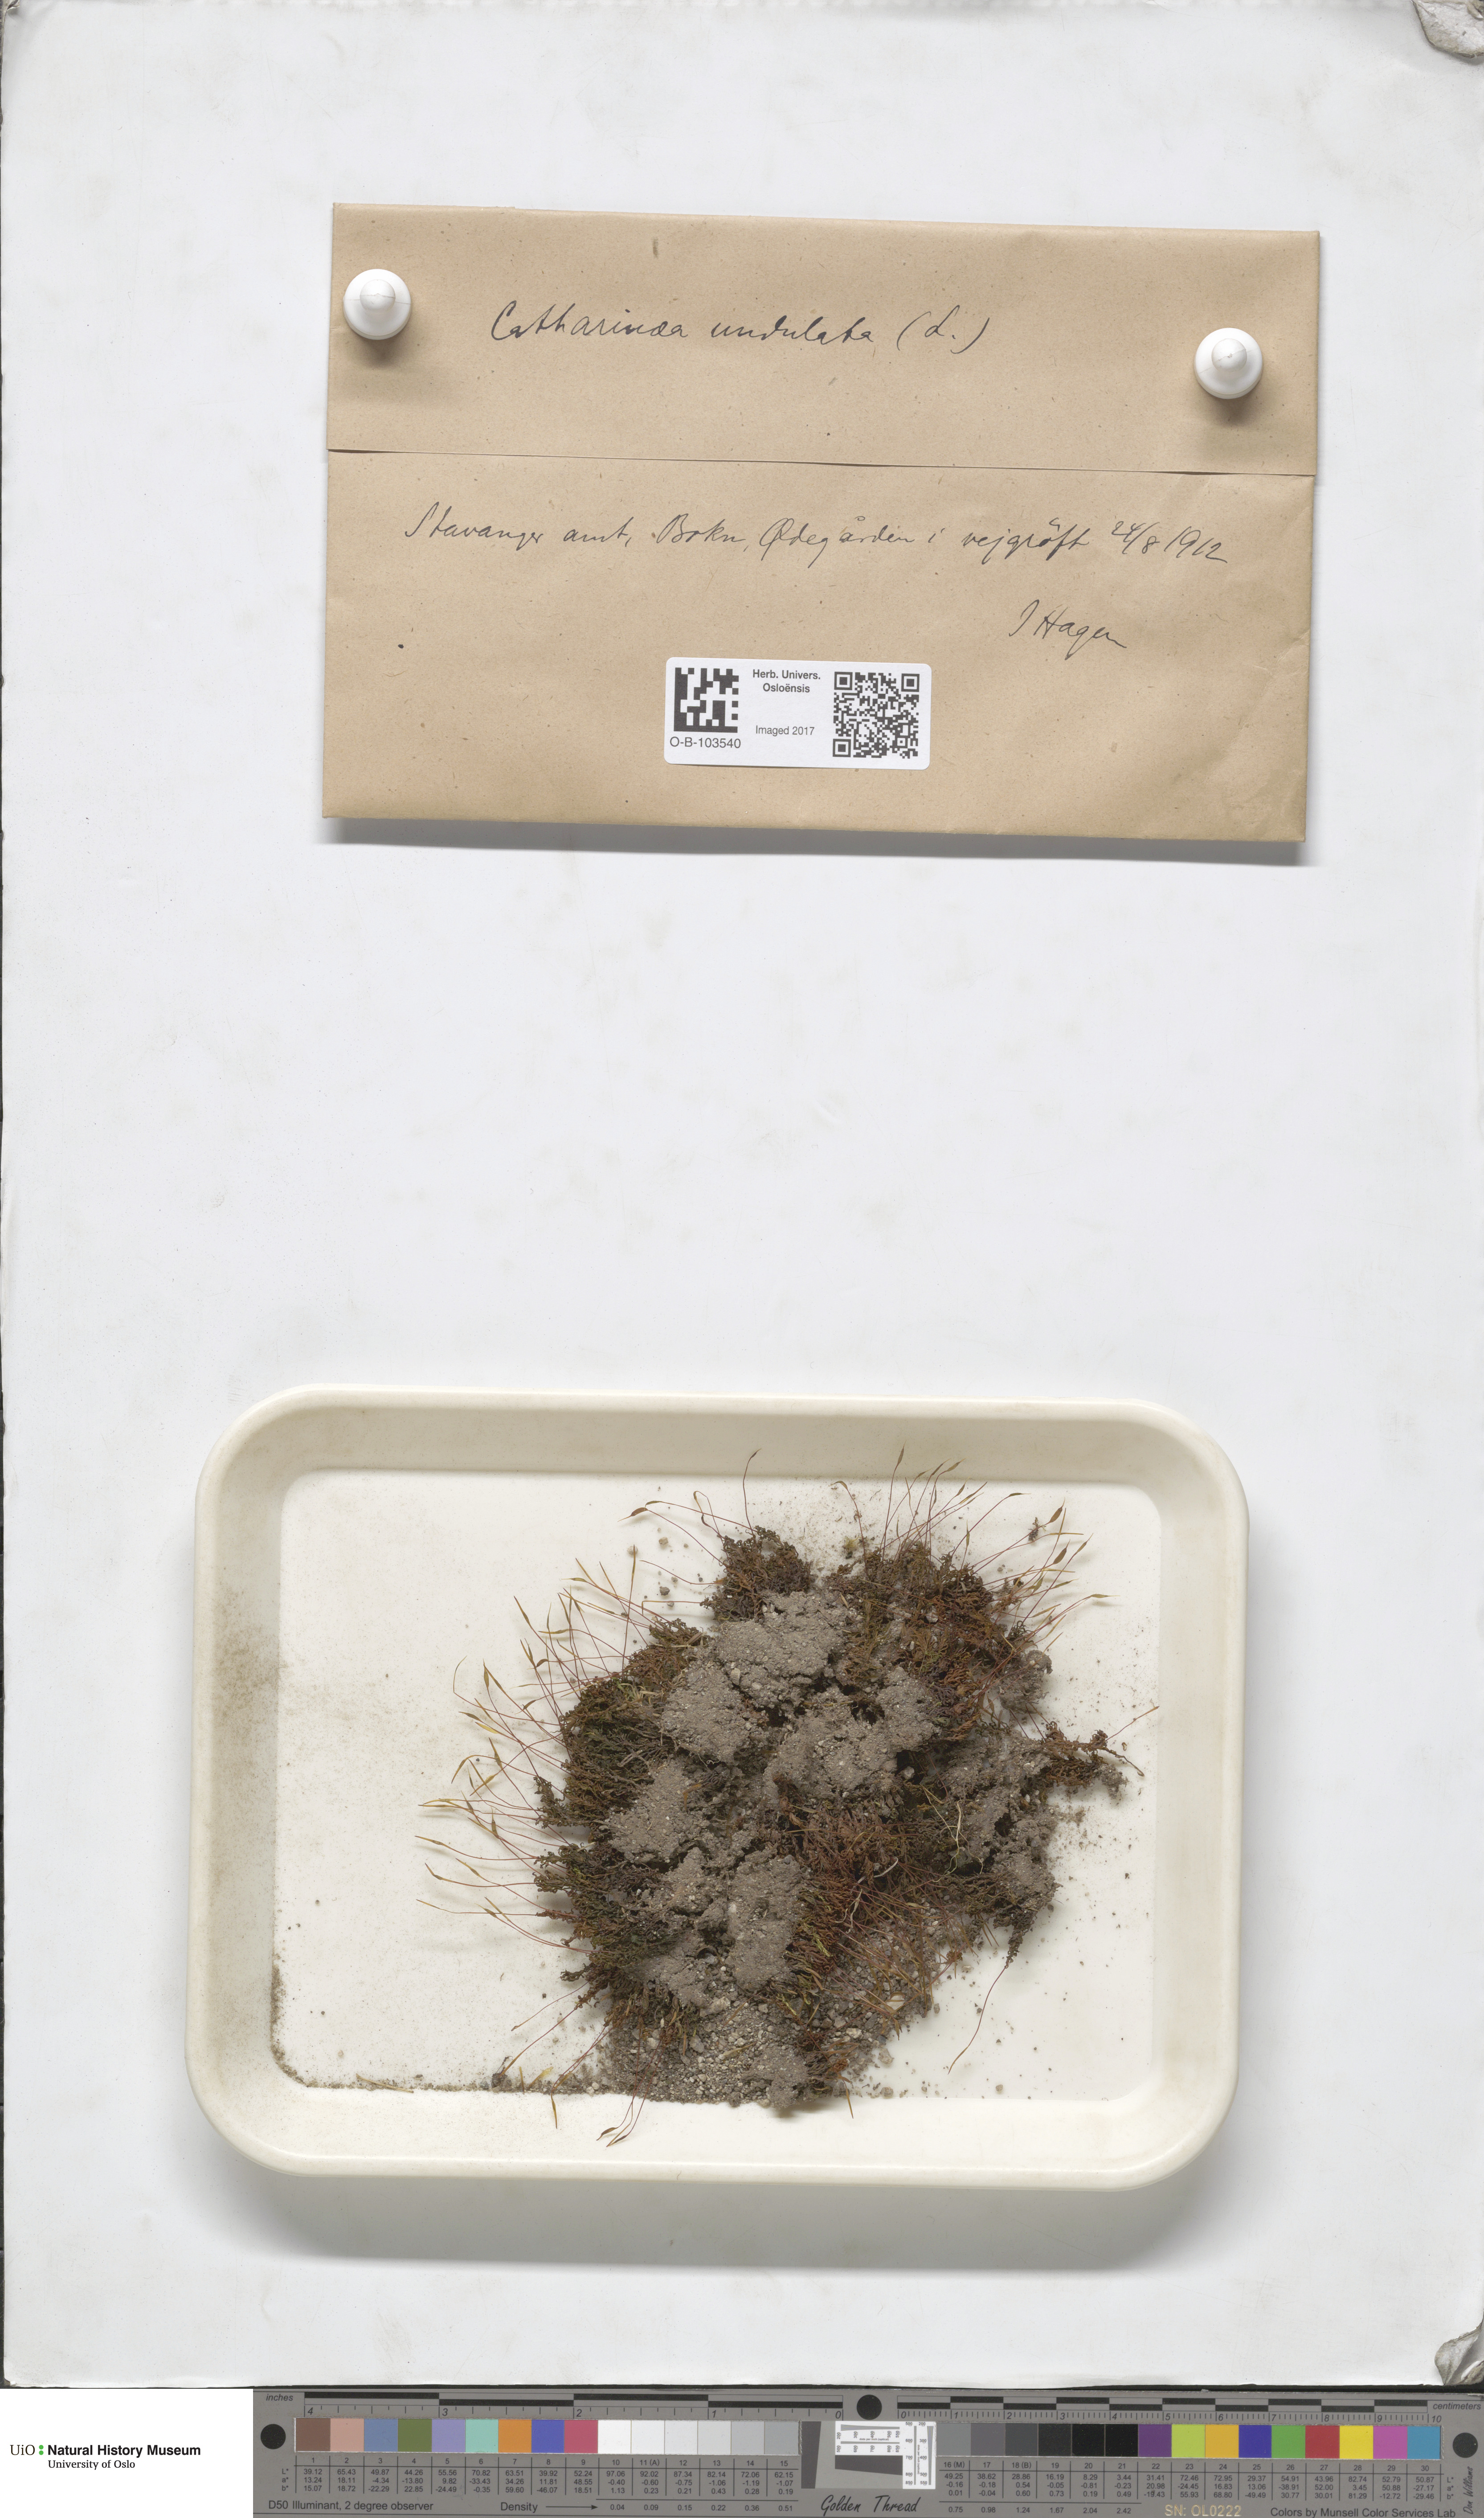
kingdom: Plantae
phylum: Bryophyta
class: Polytrichopsida
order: Polytrichales
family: Polytrichaceae
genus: Atrichum
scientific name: Atrichum undulatum
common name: Common smoothcap
